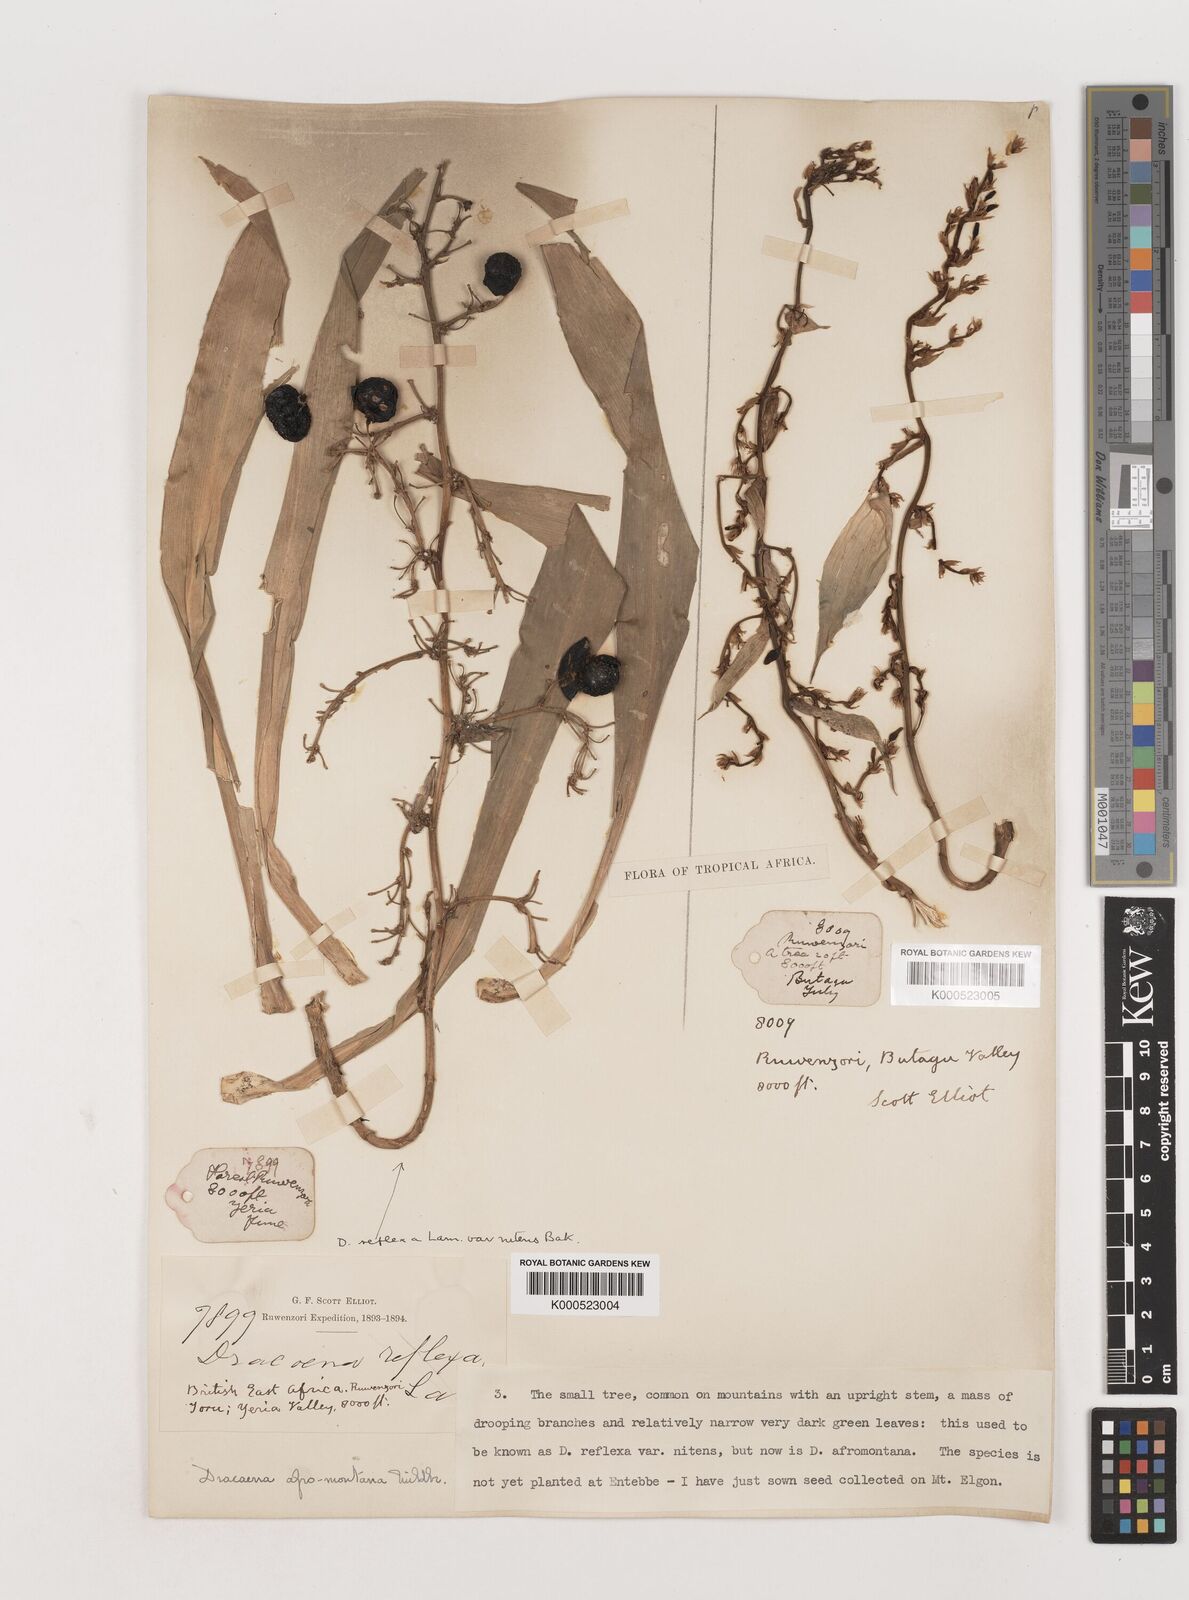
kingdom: Plantae
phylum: Tracheophyta
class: Liliopsida
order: Asparagales
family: Asparagaceae
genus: Dracaena
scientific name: Dracaena afromontana
